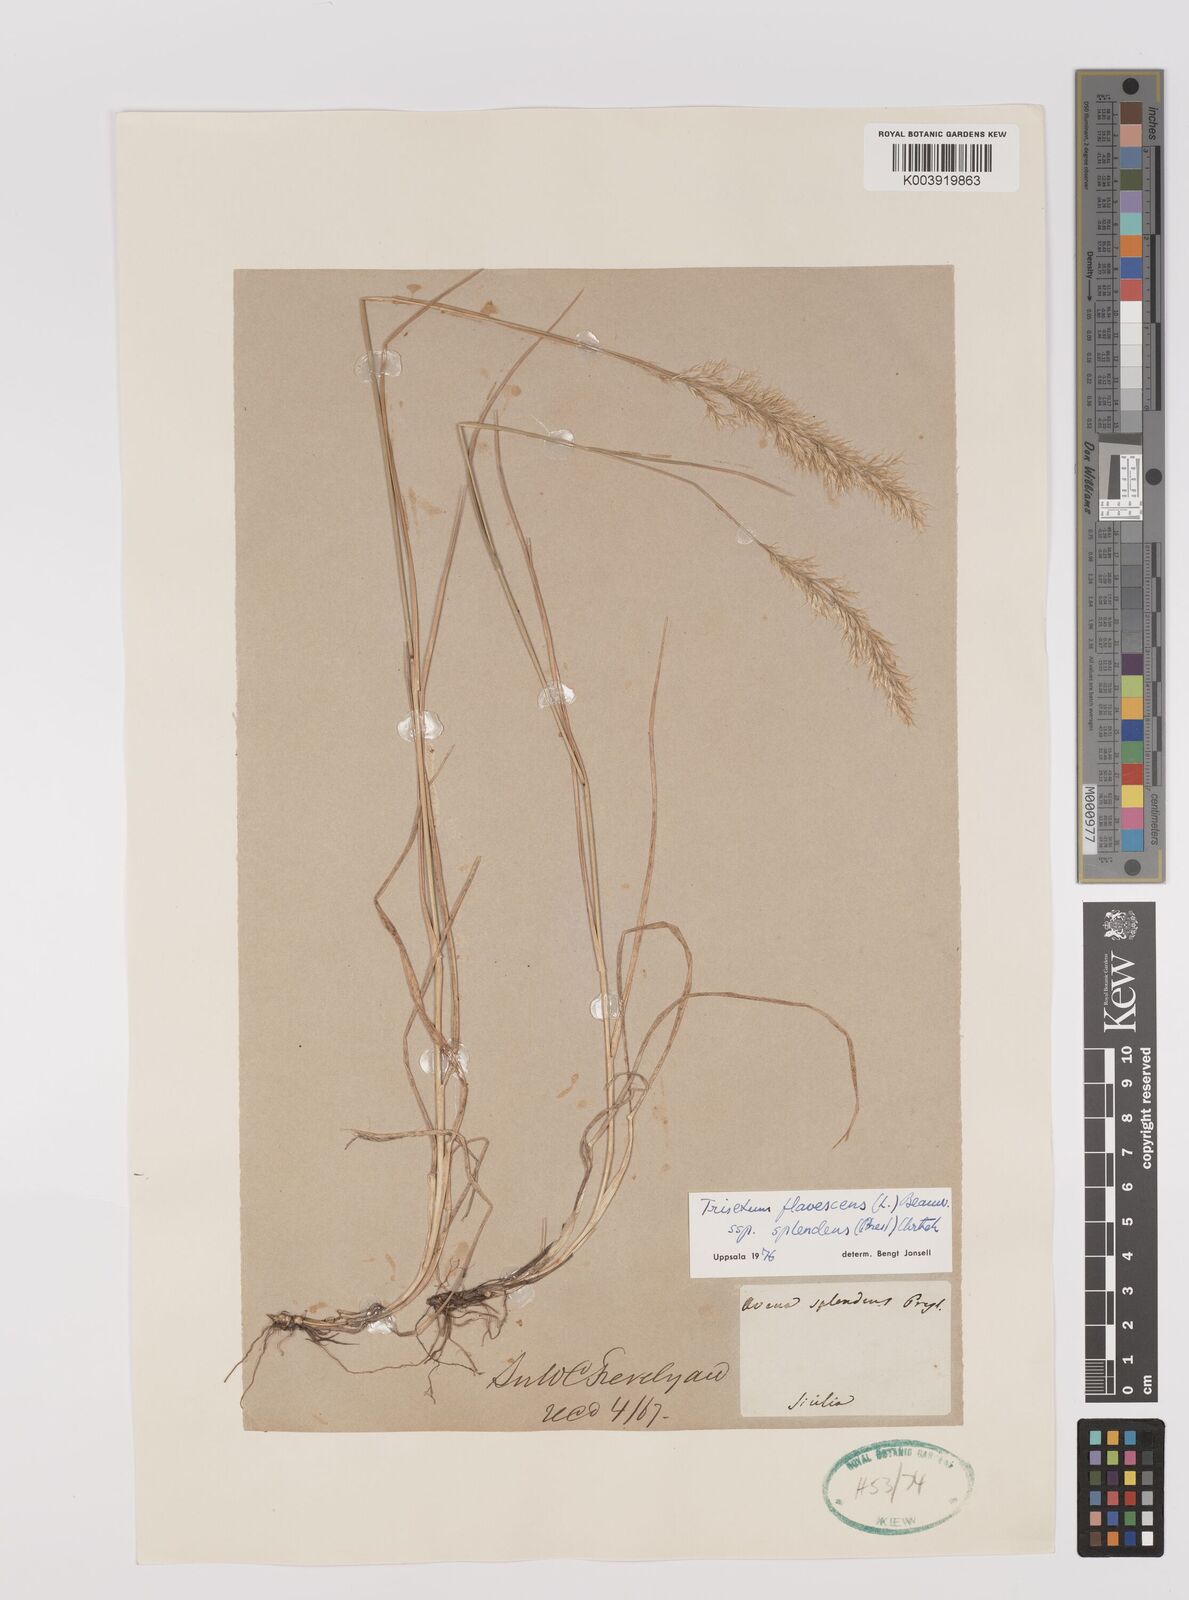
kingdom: Plantae
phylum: Tracheophyta
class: Liliopsida
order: Poales
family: Poaceae
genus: Trisetum
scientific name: Trisetum flavescens
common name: Yellow oat-grass
